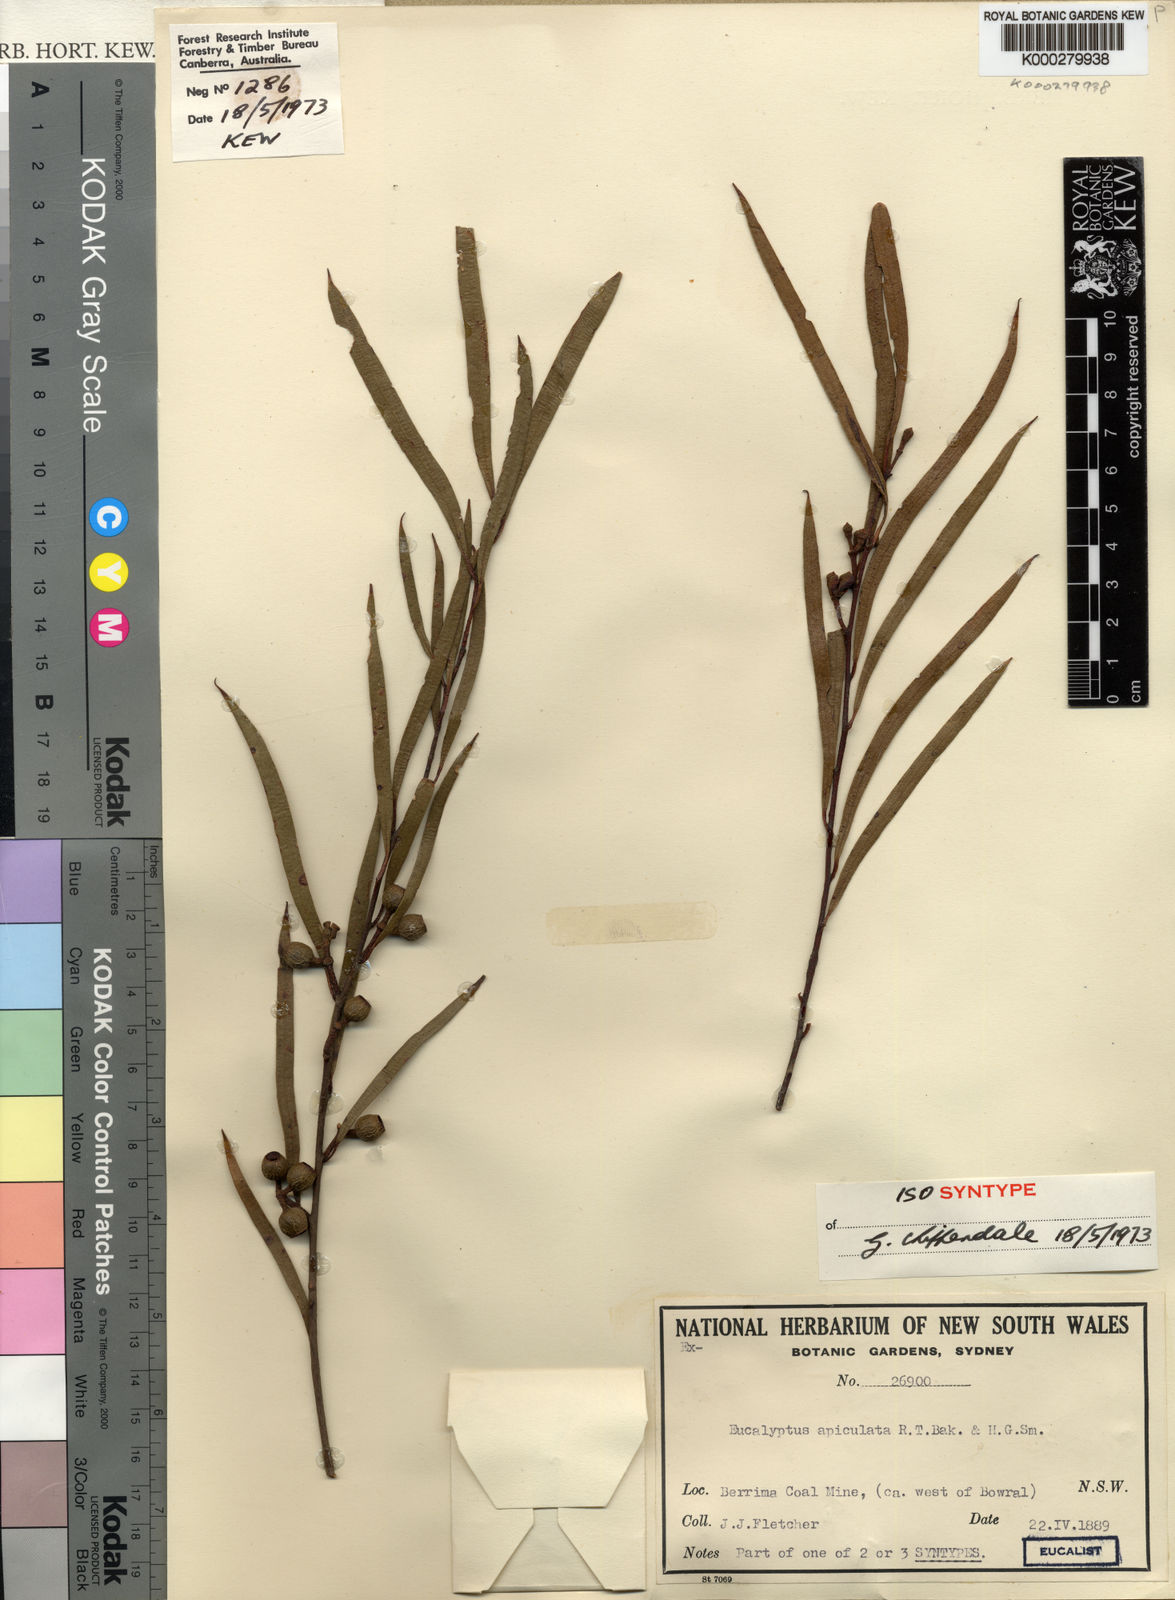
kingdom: Plantae
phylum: Tracheophyta
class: Magnoliopsida
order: Myrtales
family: Myrtaceae
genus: Eucalyptus
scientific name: Eucalyptus apiculata
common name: Narrow-leaf mallee-ash
